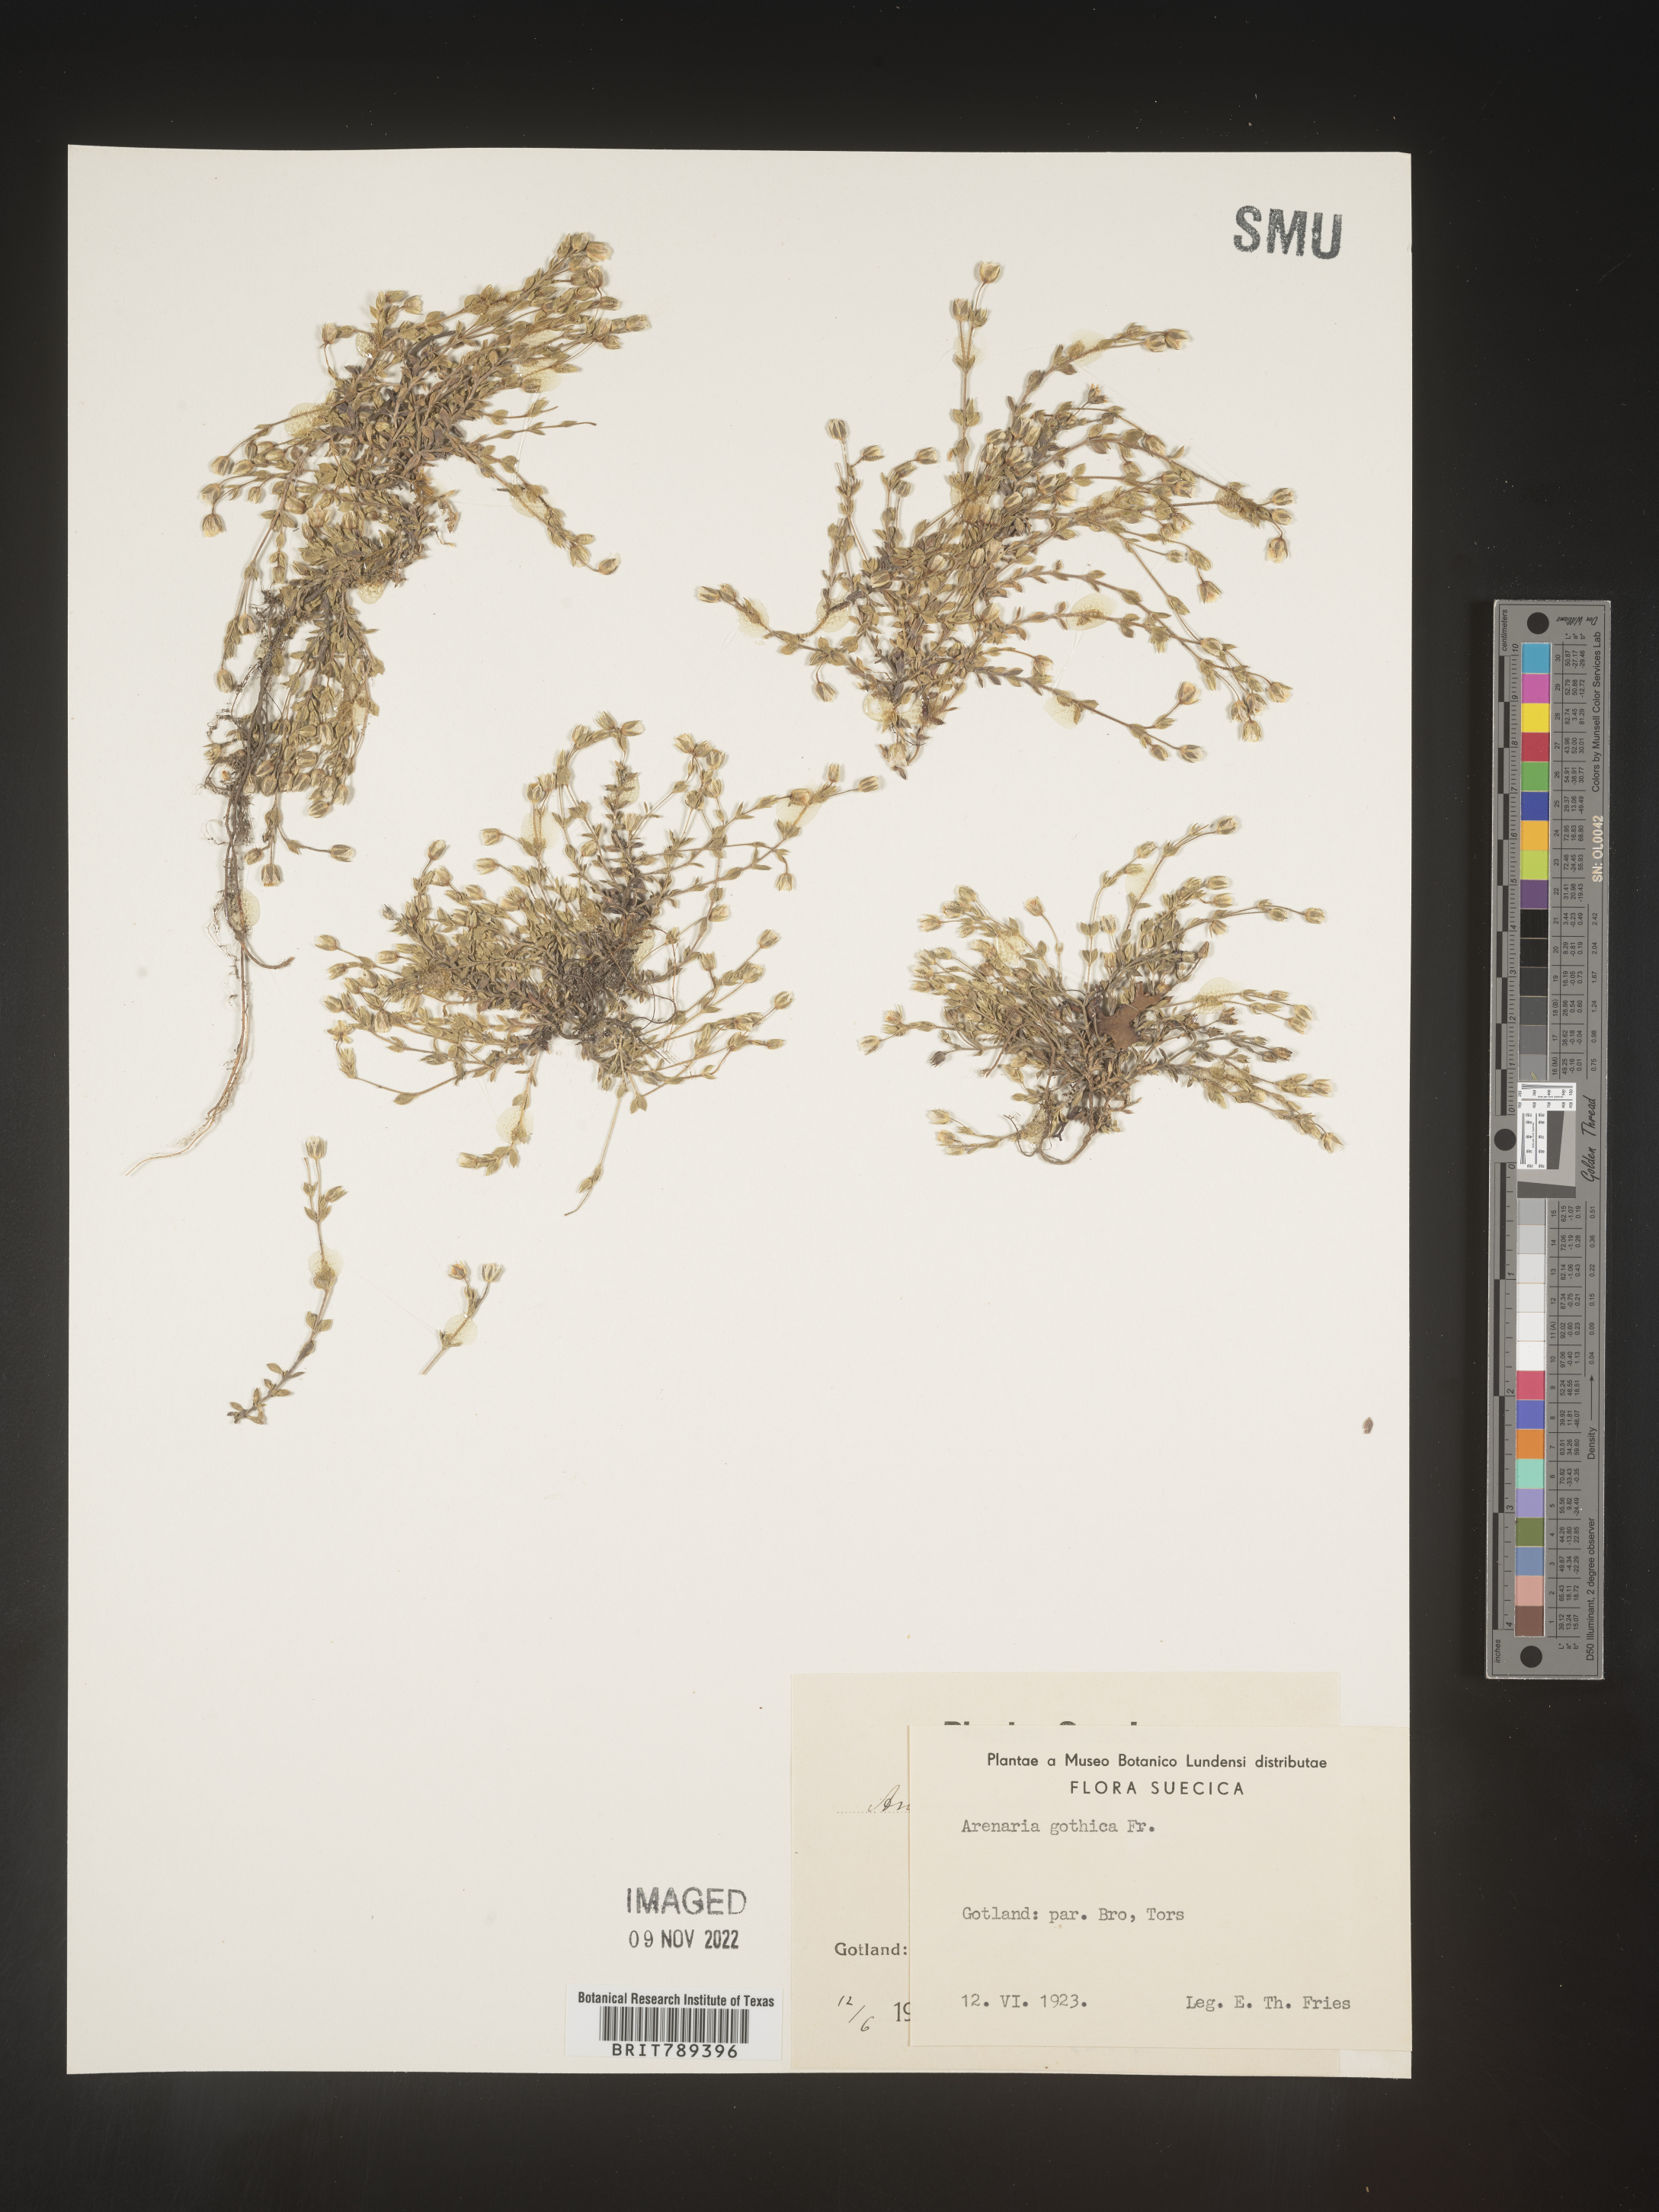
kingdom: Plantae
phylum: Tracheophyta
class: Magnoliopsida
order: Caryophyllales
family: Caryophyllaceae
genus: Arenaria
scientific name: Arenaria
